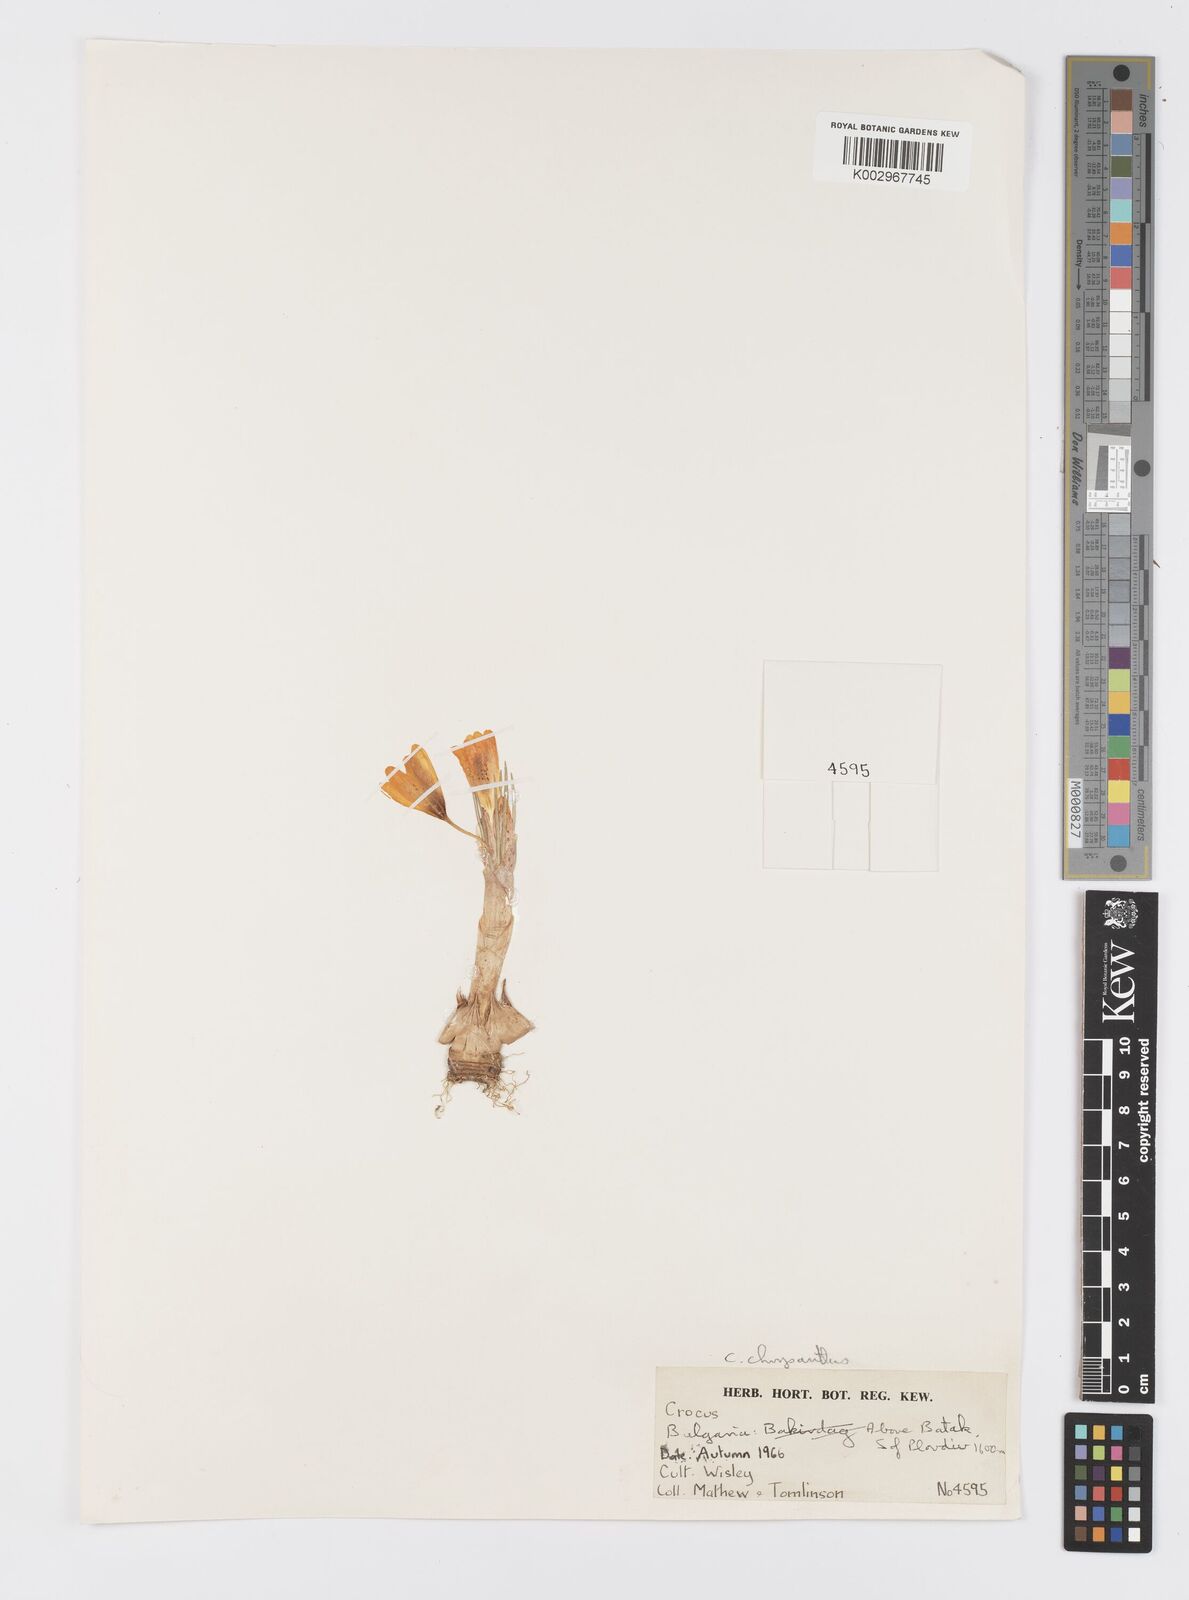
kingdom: Plantae
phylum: Tracheophyta
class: Liliopsida
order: Asparagales
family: Iridaceae
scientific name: Iridaceae
